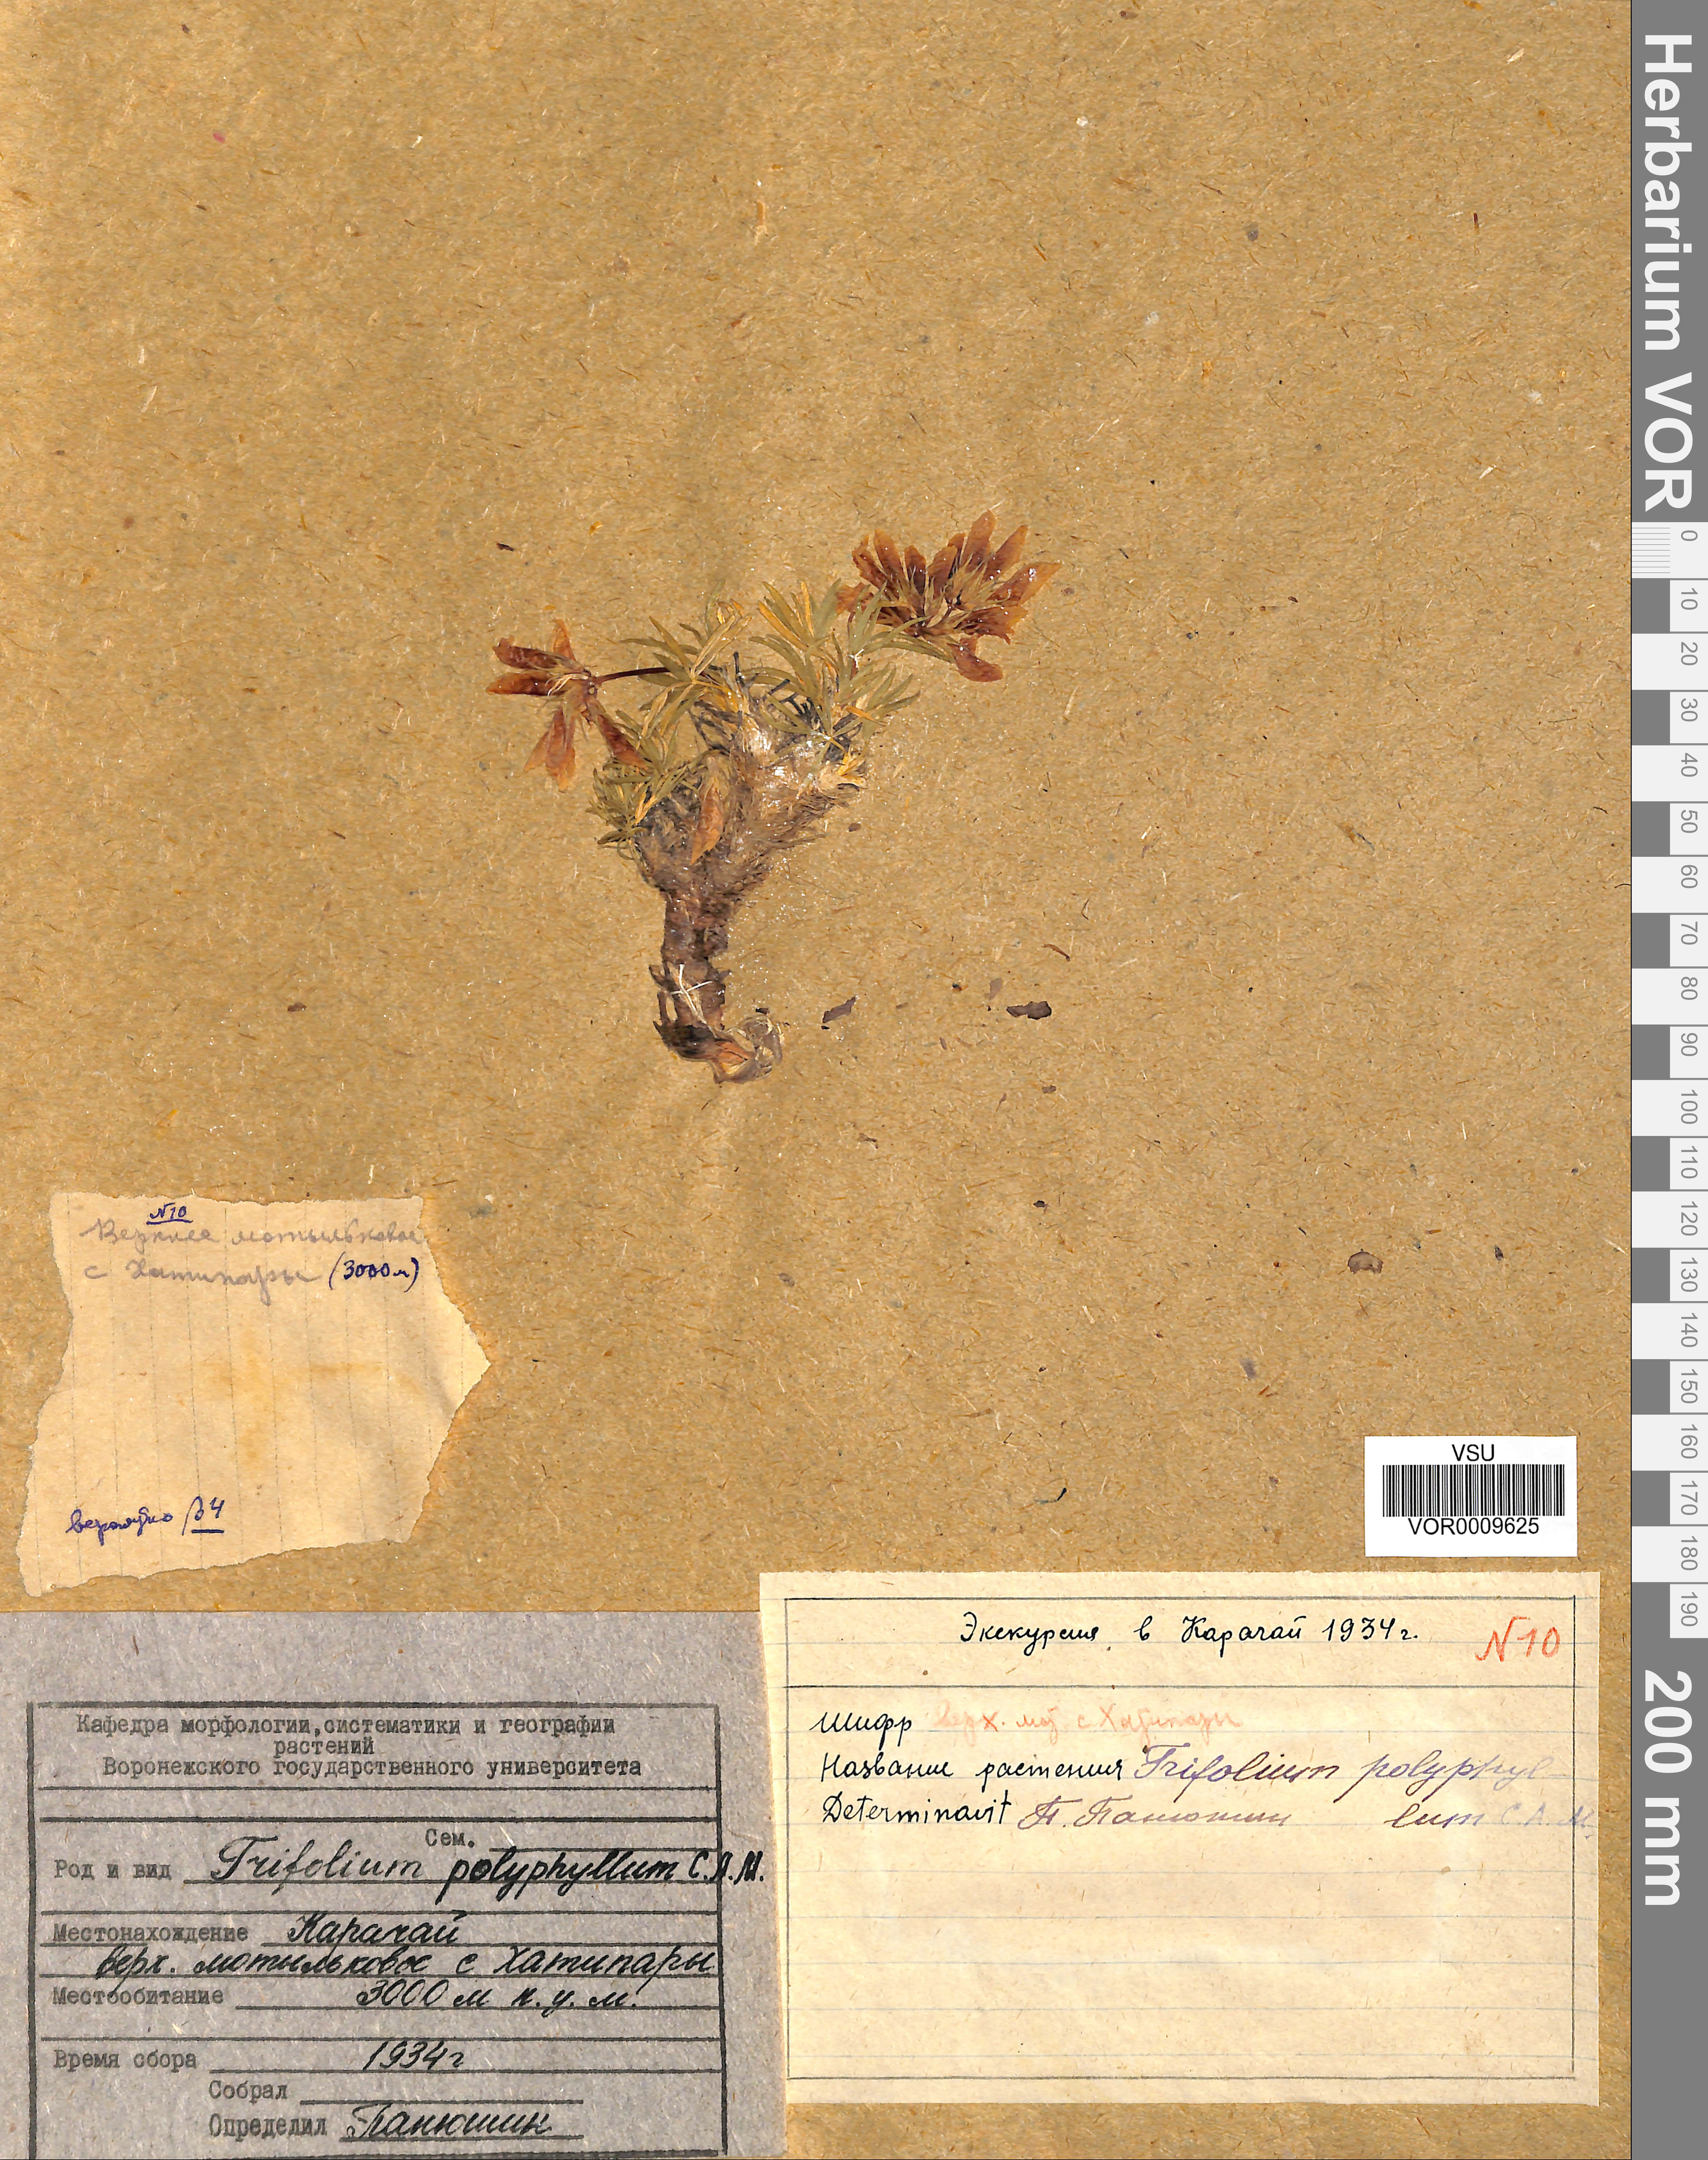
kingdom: Plantae
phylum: Tracheophyta
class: Magnoliopsida
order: Fabales
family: Fabaceae
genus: Trifolium
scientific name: Trifolium polyphyllum
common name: Many-leaf clover
